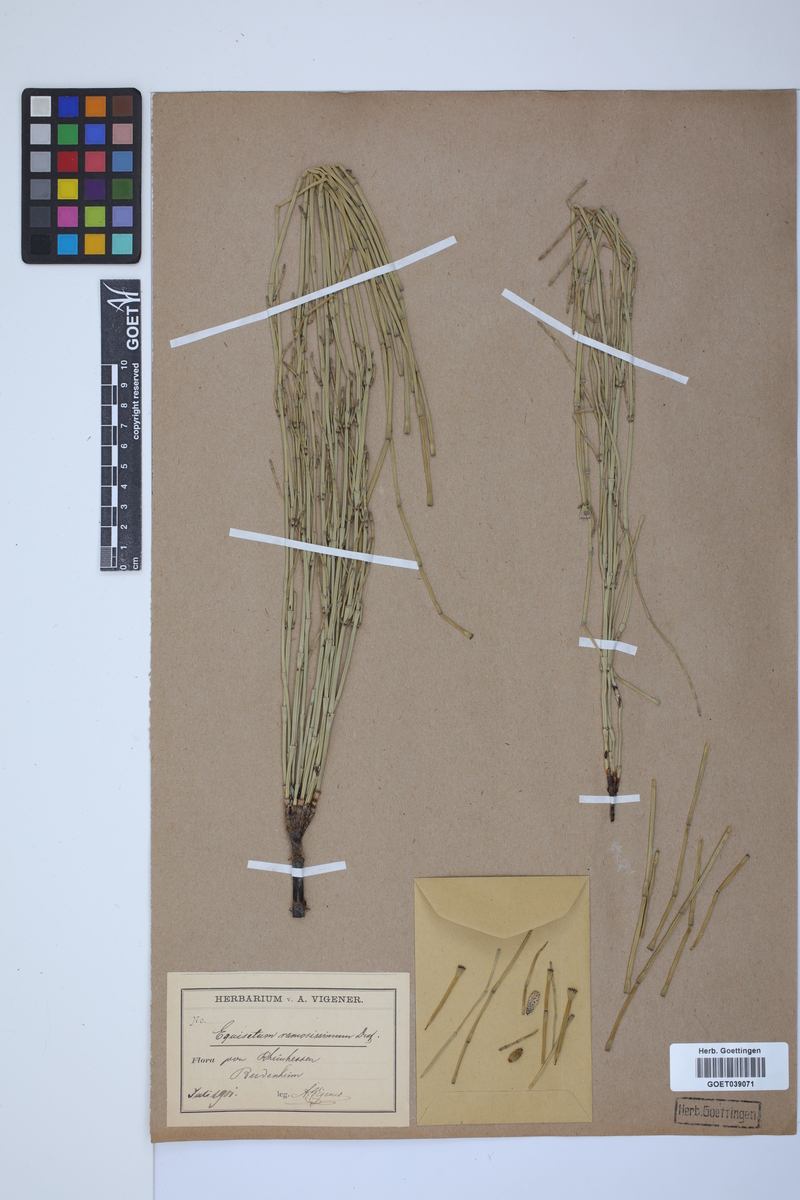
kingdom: Plantae
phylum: Tracheophyta
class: Polypodiopsida
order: Equisetales
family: Equisetaceae
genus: Equisetum
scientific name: Equisetum giganteum
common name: Giant horsetail
